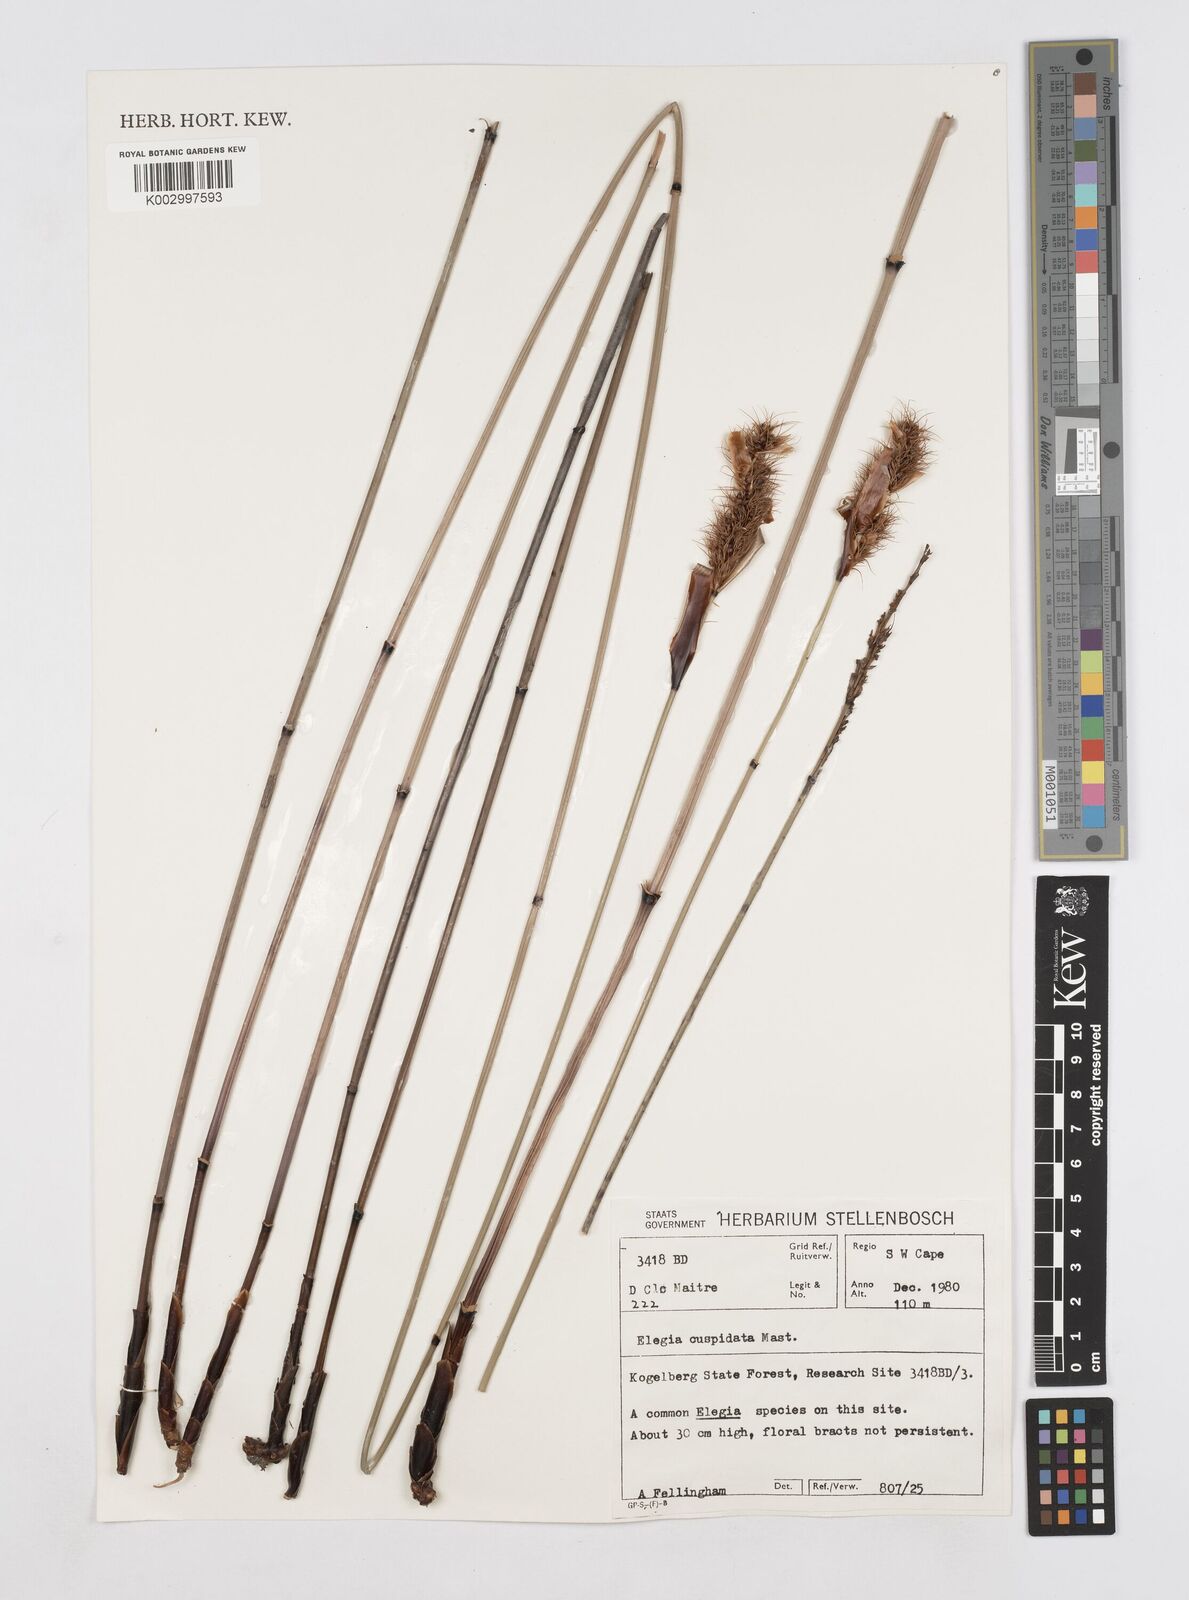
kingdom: Plantae
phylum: Tracheophyta
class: Liliopsida
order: Poales
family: Restionaceae
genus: Elegia
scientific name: Elegia cuspidata
